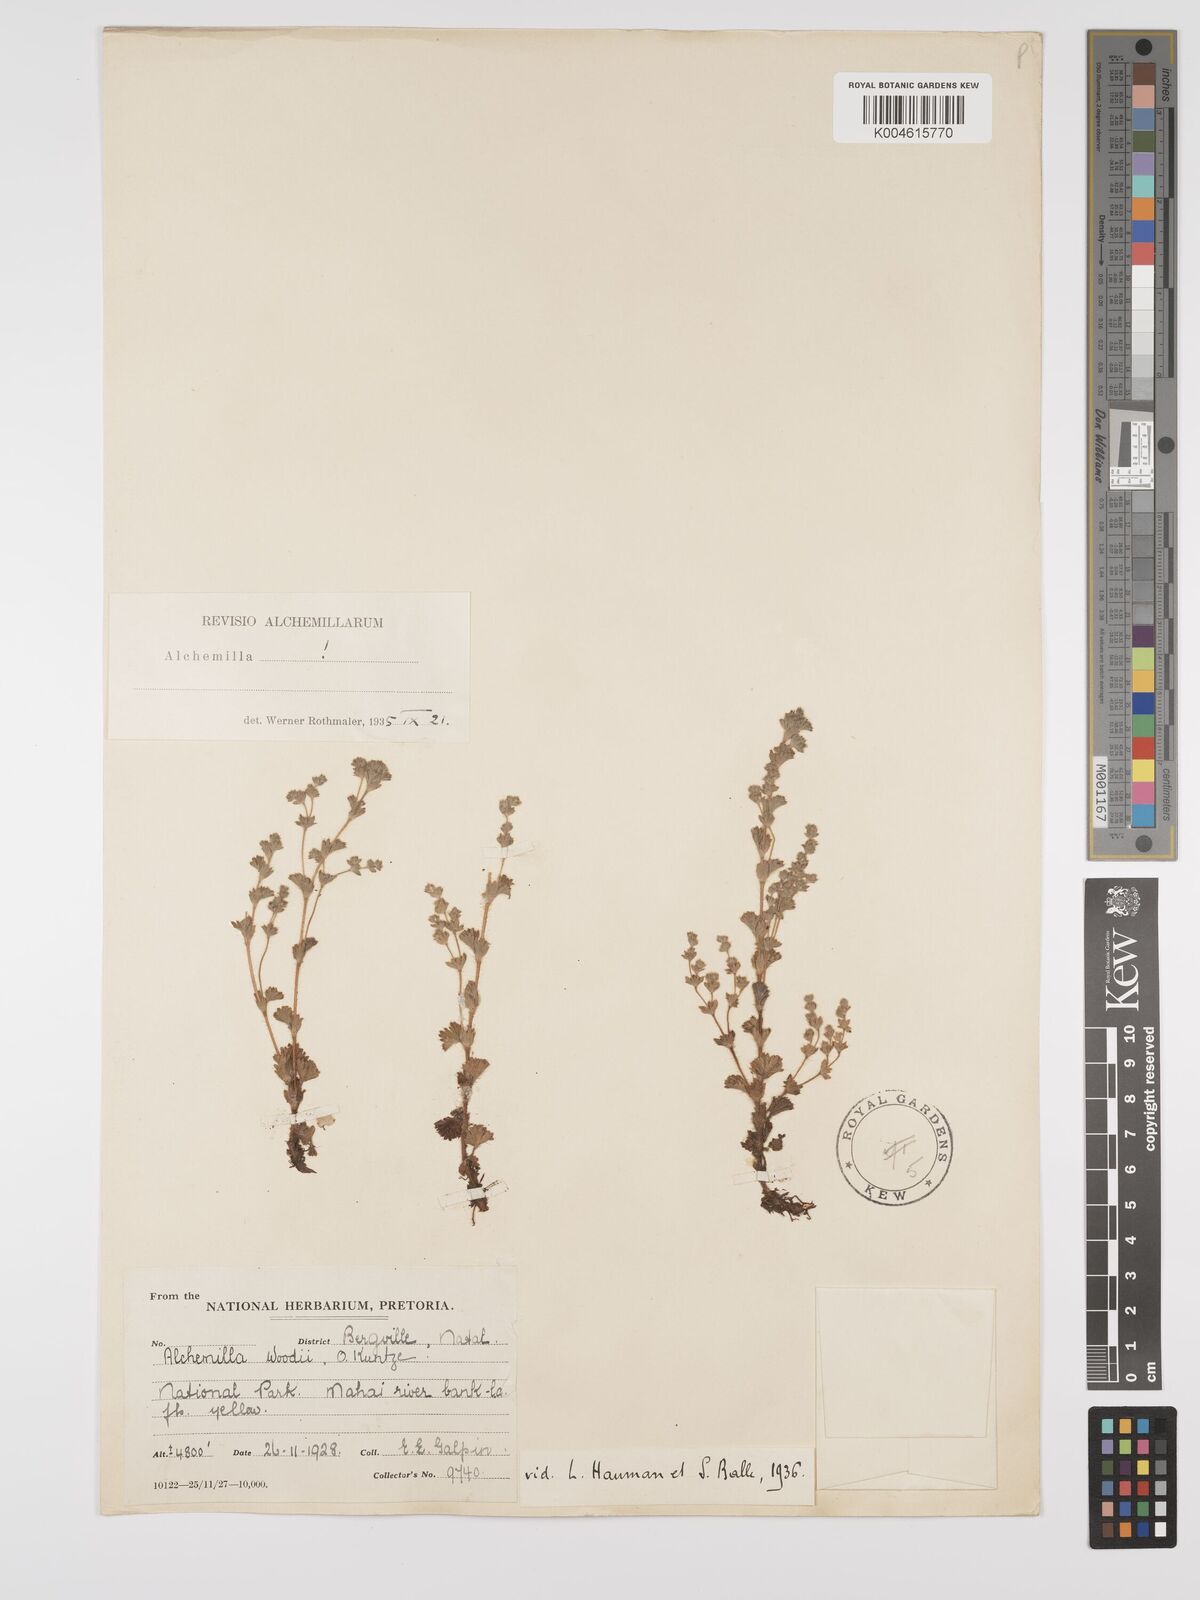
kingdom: Plantae
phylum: Tracheophyta
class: Magnoliopsida
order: Rosales
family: Rosaceae
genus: Alchemilla
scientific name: Alchemilla woodii
